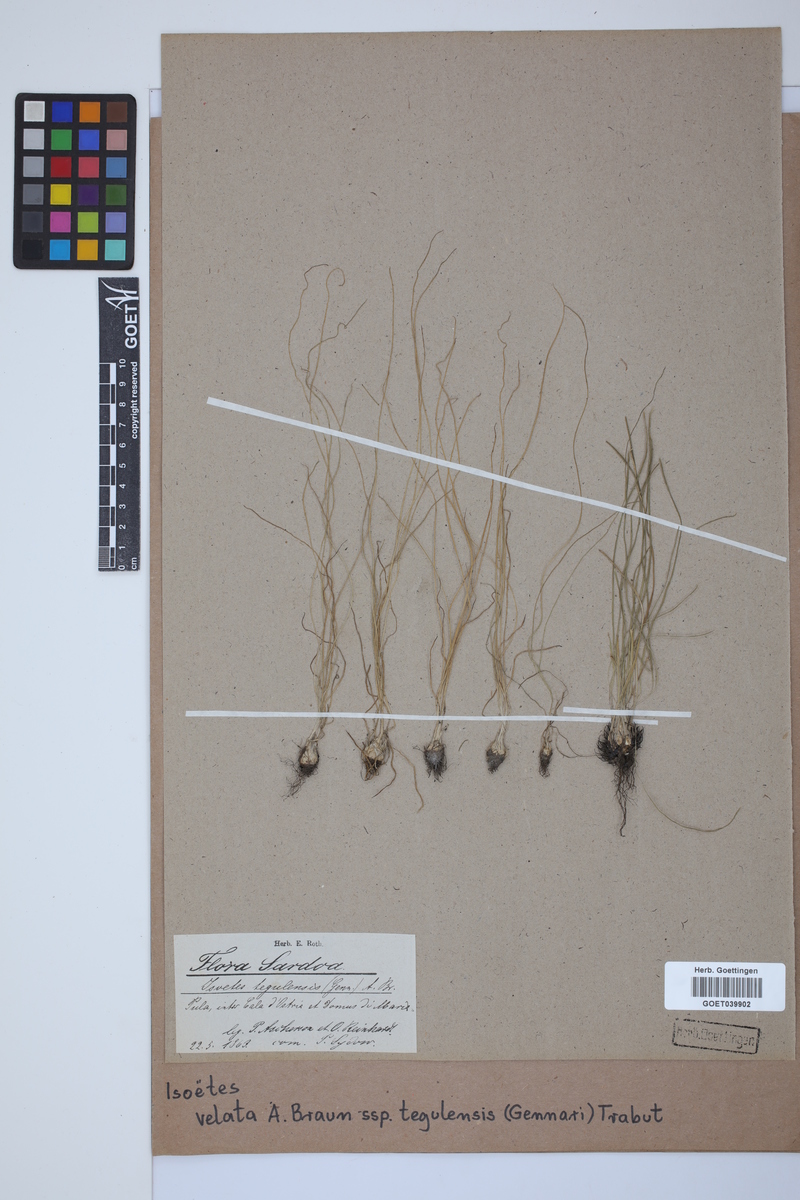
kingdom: Plantae
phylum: Tracheophyta
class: Lycopodiopsida
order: Isoetales
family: Isoetaceae
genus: Isoetes
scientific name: Isoetes tiguliana
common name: Sardinian quillwort
